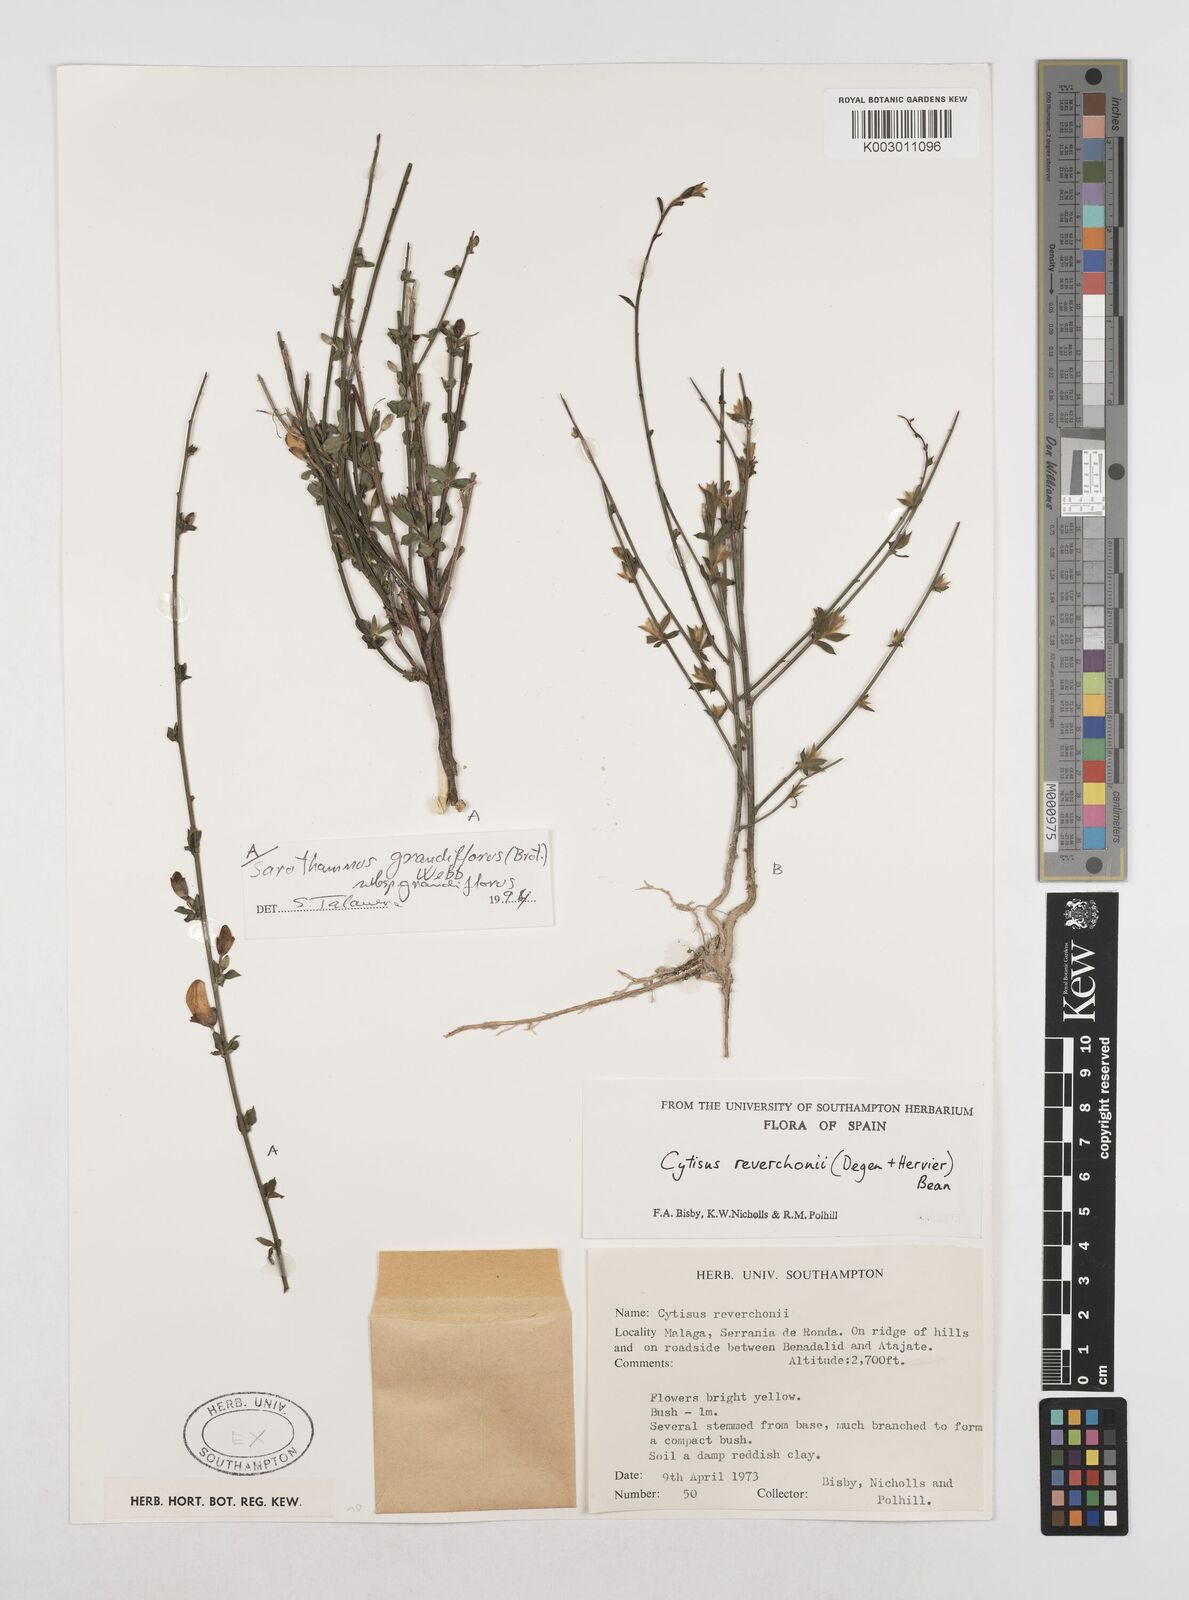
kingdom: Plantae
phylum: Tracheophyta
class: Magnoliopsida
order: Fabales
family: Fabaceae
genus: Cytisus
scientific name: Cytisus scoparius
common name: Scotch broom
